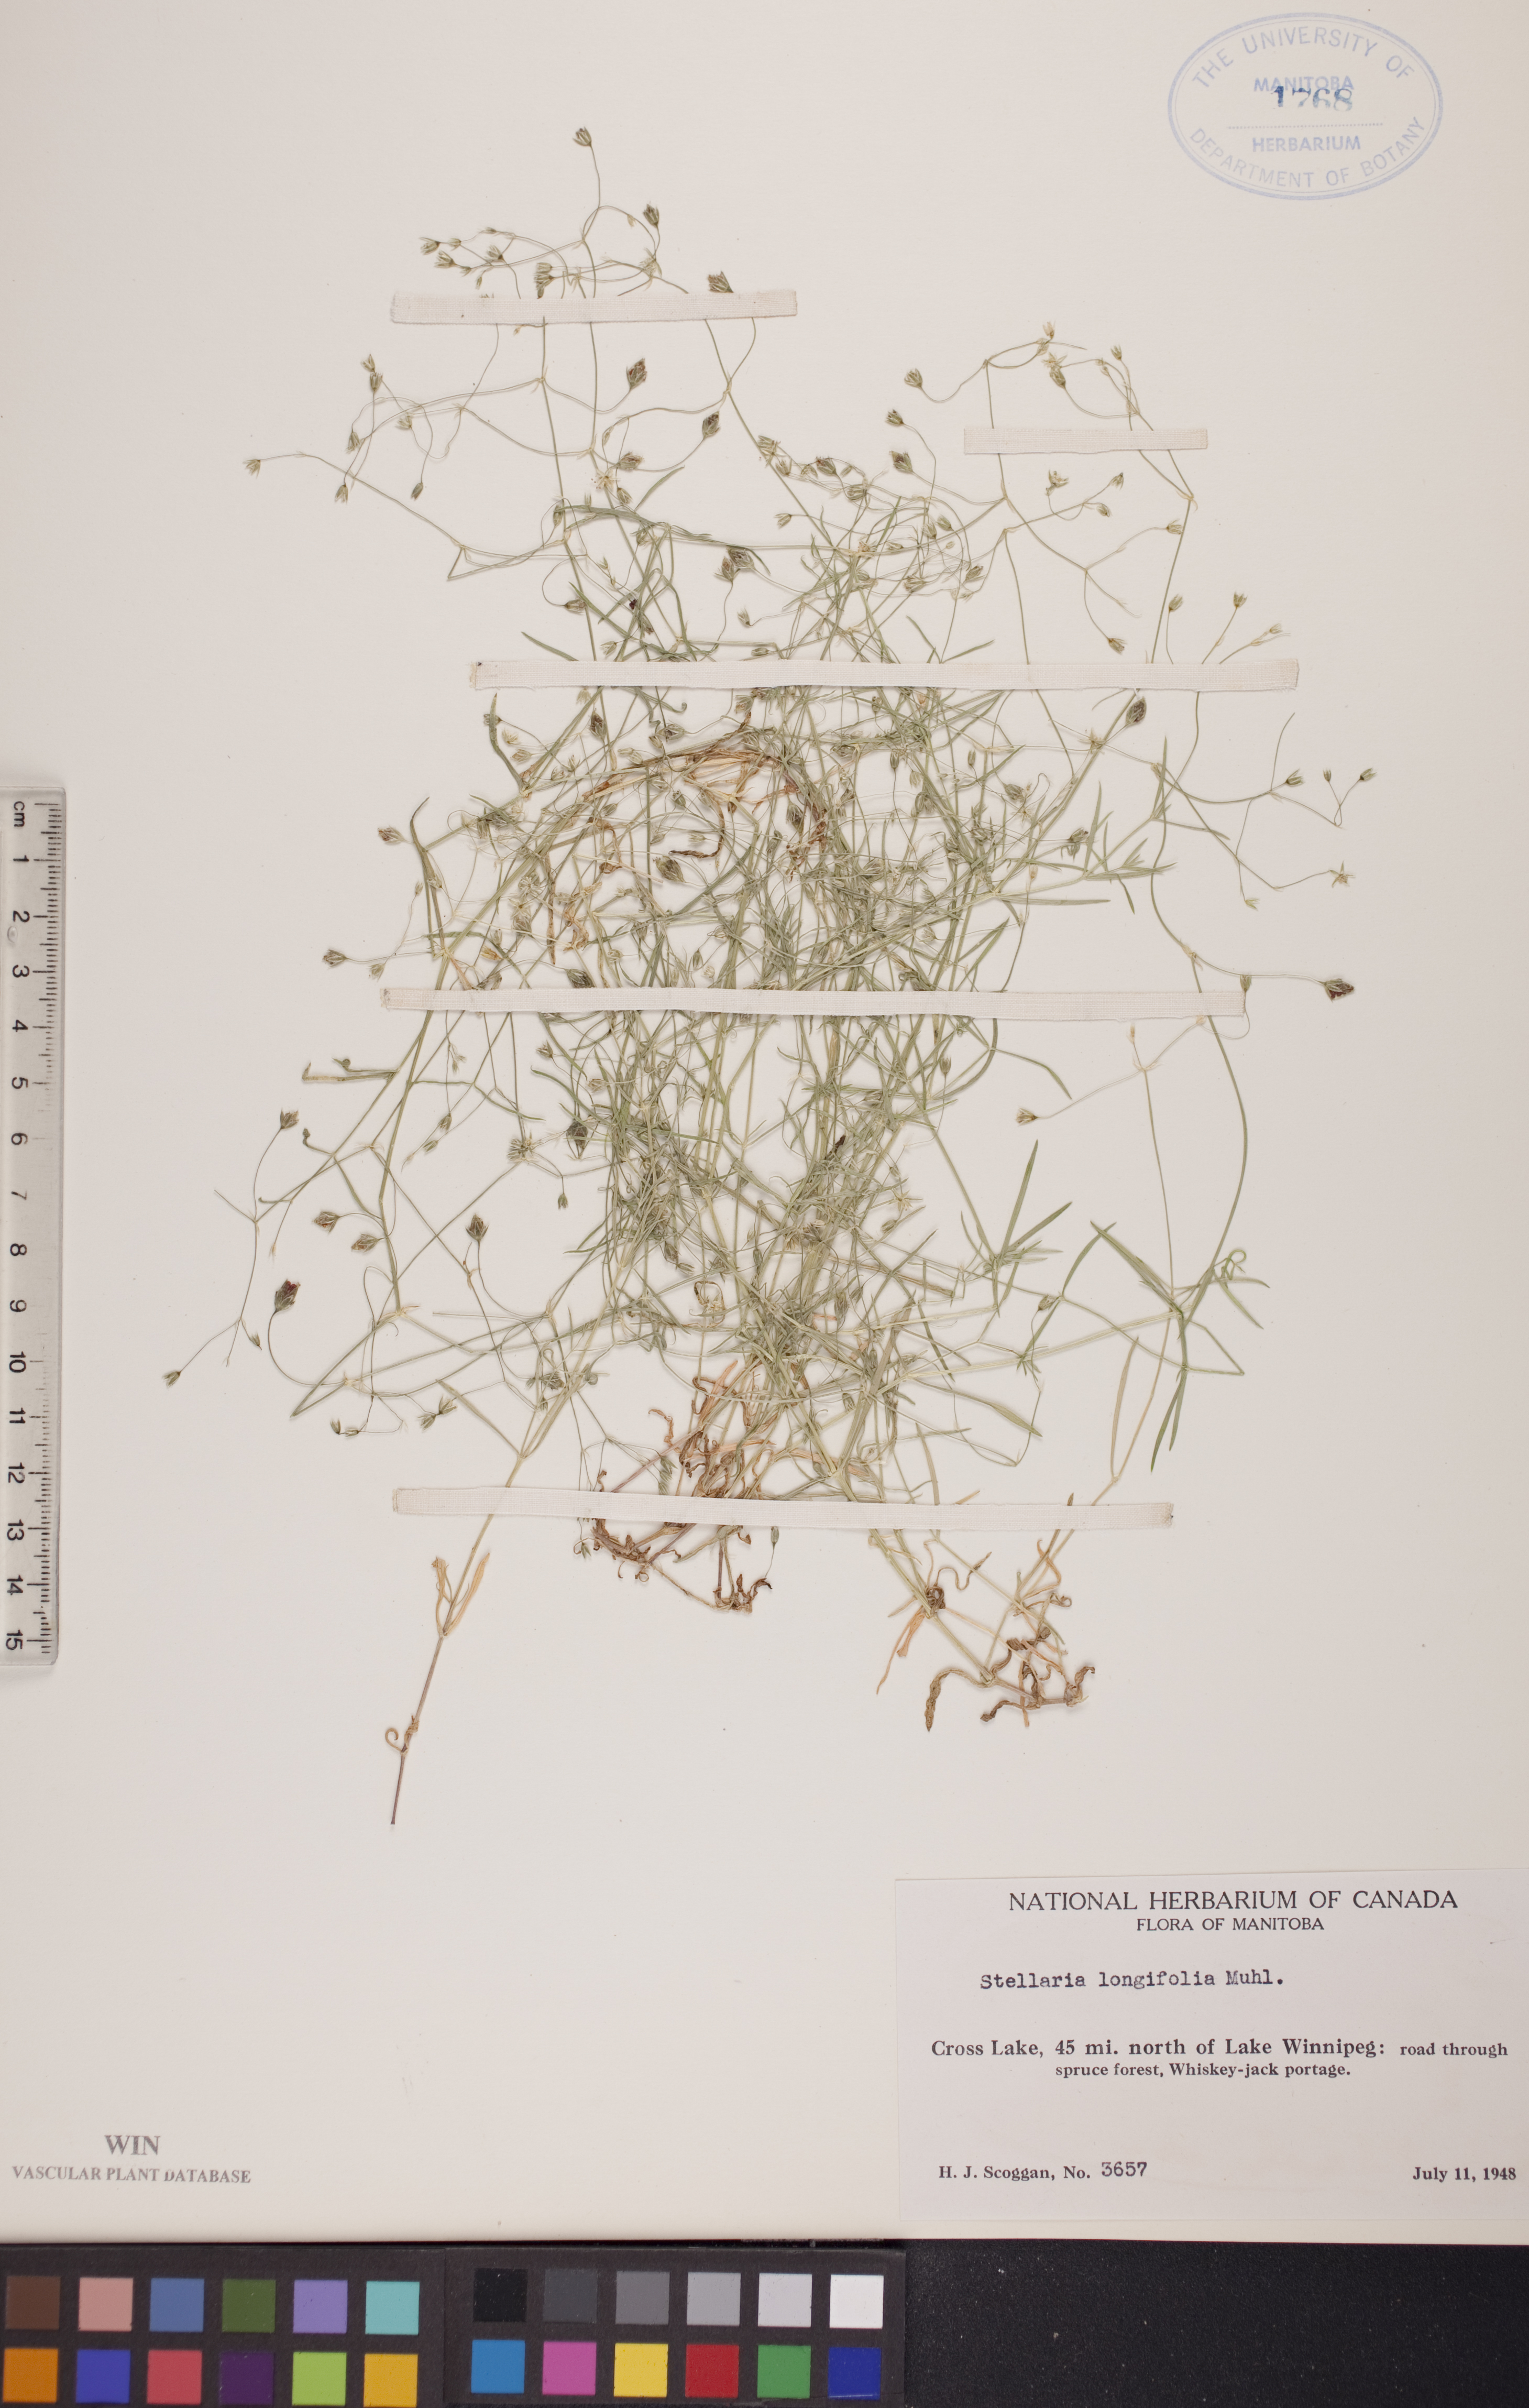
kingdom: Plantae
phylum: Tracheophyta
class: Magnoliopsida
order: Caryophyllales
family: Caryophyllaceae
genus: Stellaria
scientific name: Stellaria longifolia
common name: Long-leaved chickweed
